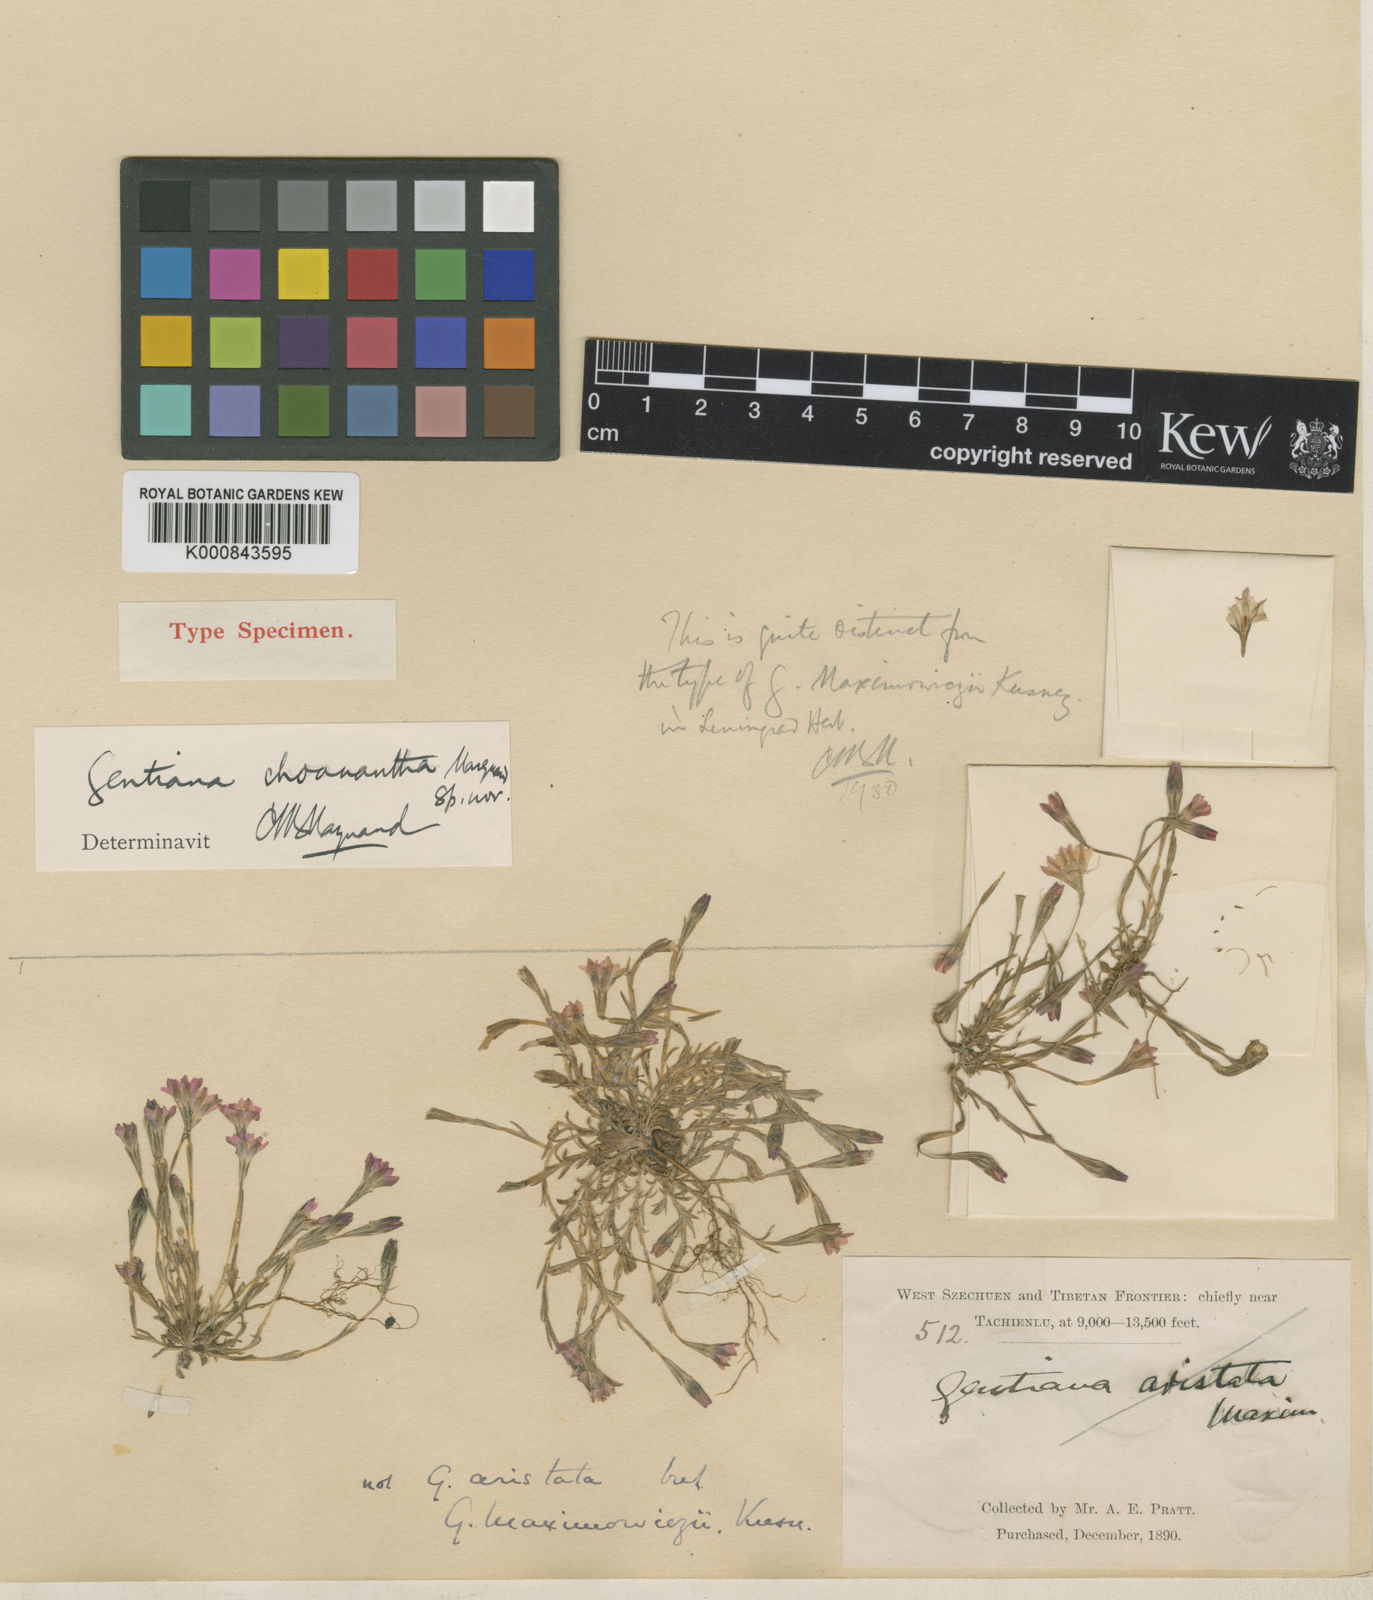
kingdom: Plantae
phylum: Tracheophyta
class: Magnoliopsida
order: Gentianales
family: Gentianaceae
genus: Gentiana
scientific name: Gentiana choanantha
